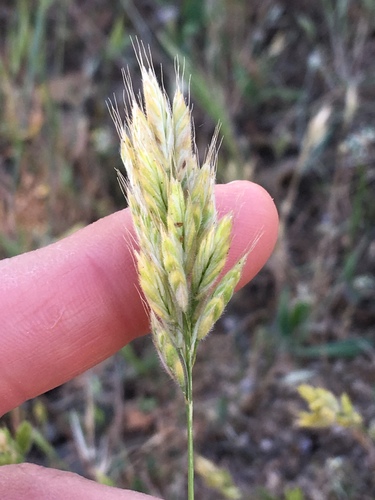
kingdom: Plantae
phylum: Tracheophyta
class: Liliopsida
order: Poales
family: Poaceae
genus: Bromus
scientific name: Bromus hordeaceus
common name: Soft brome
